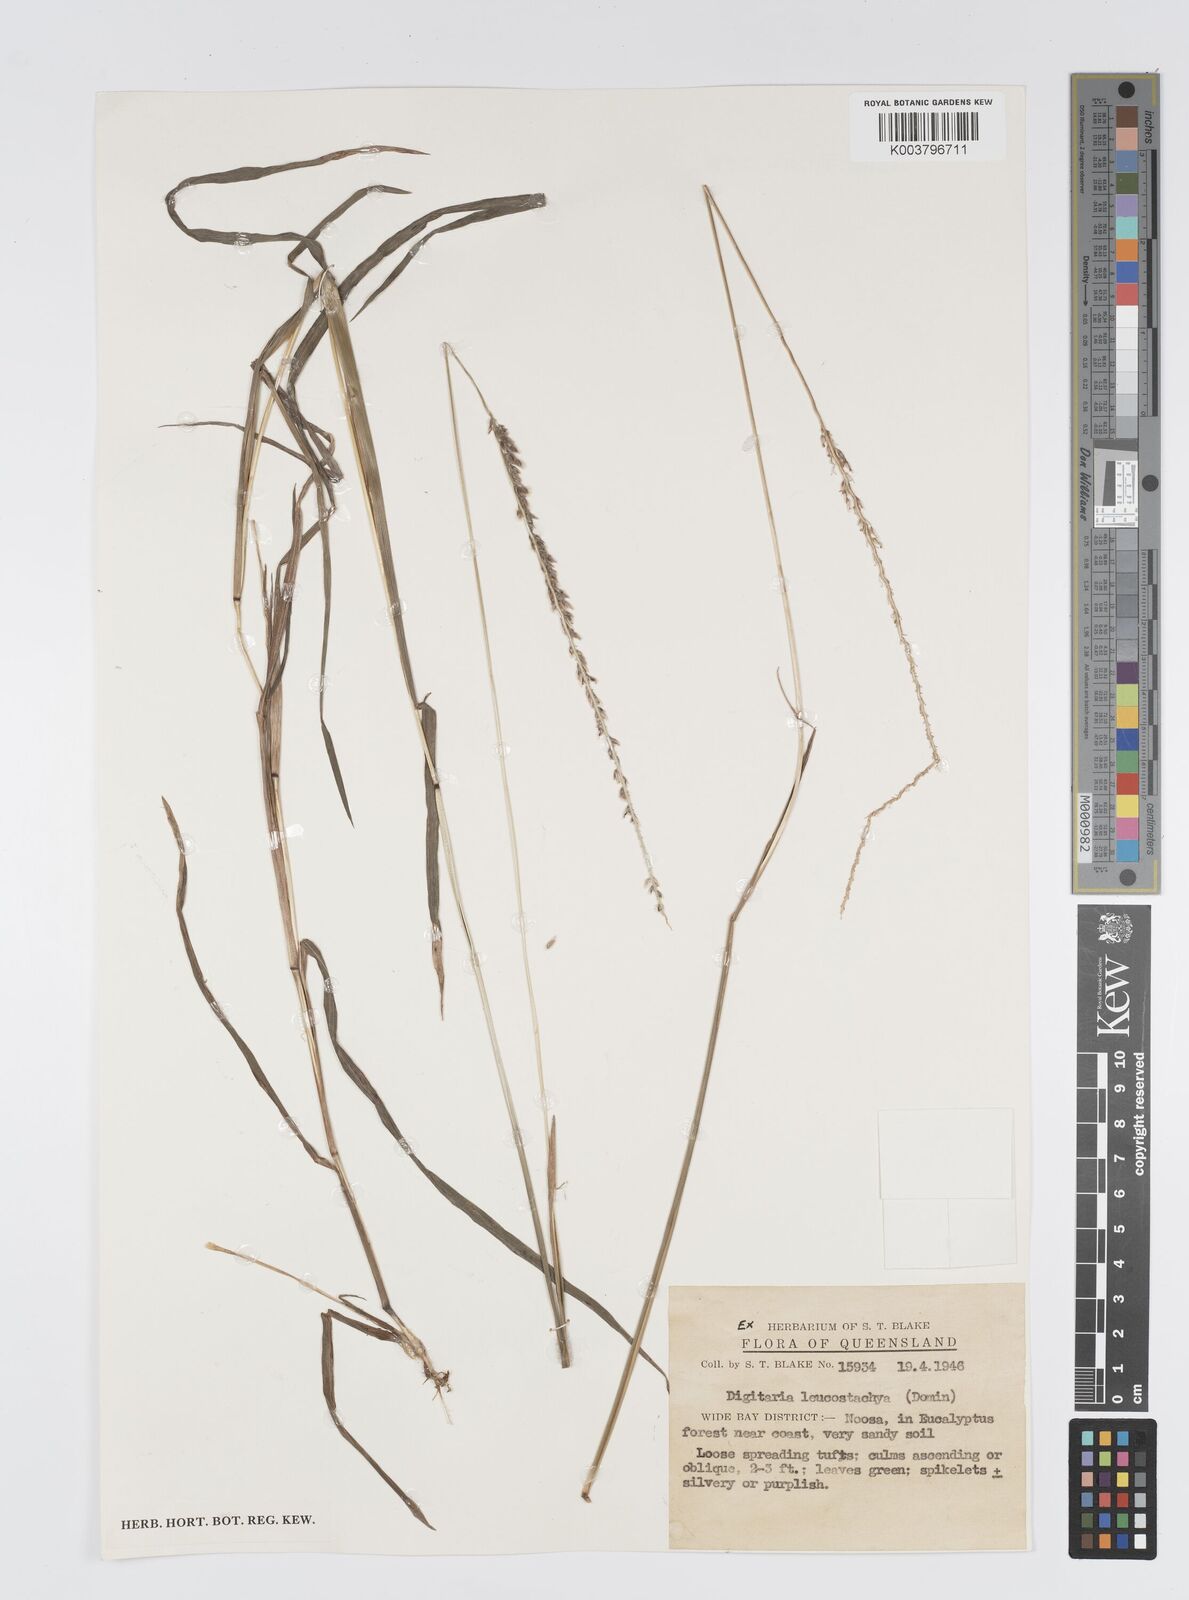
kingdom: Plantae
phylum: Tracheophyta
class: Liliopsida
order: Poales
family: Poaceae
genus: Digitaria
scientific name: Digitaria leucostachya
